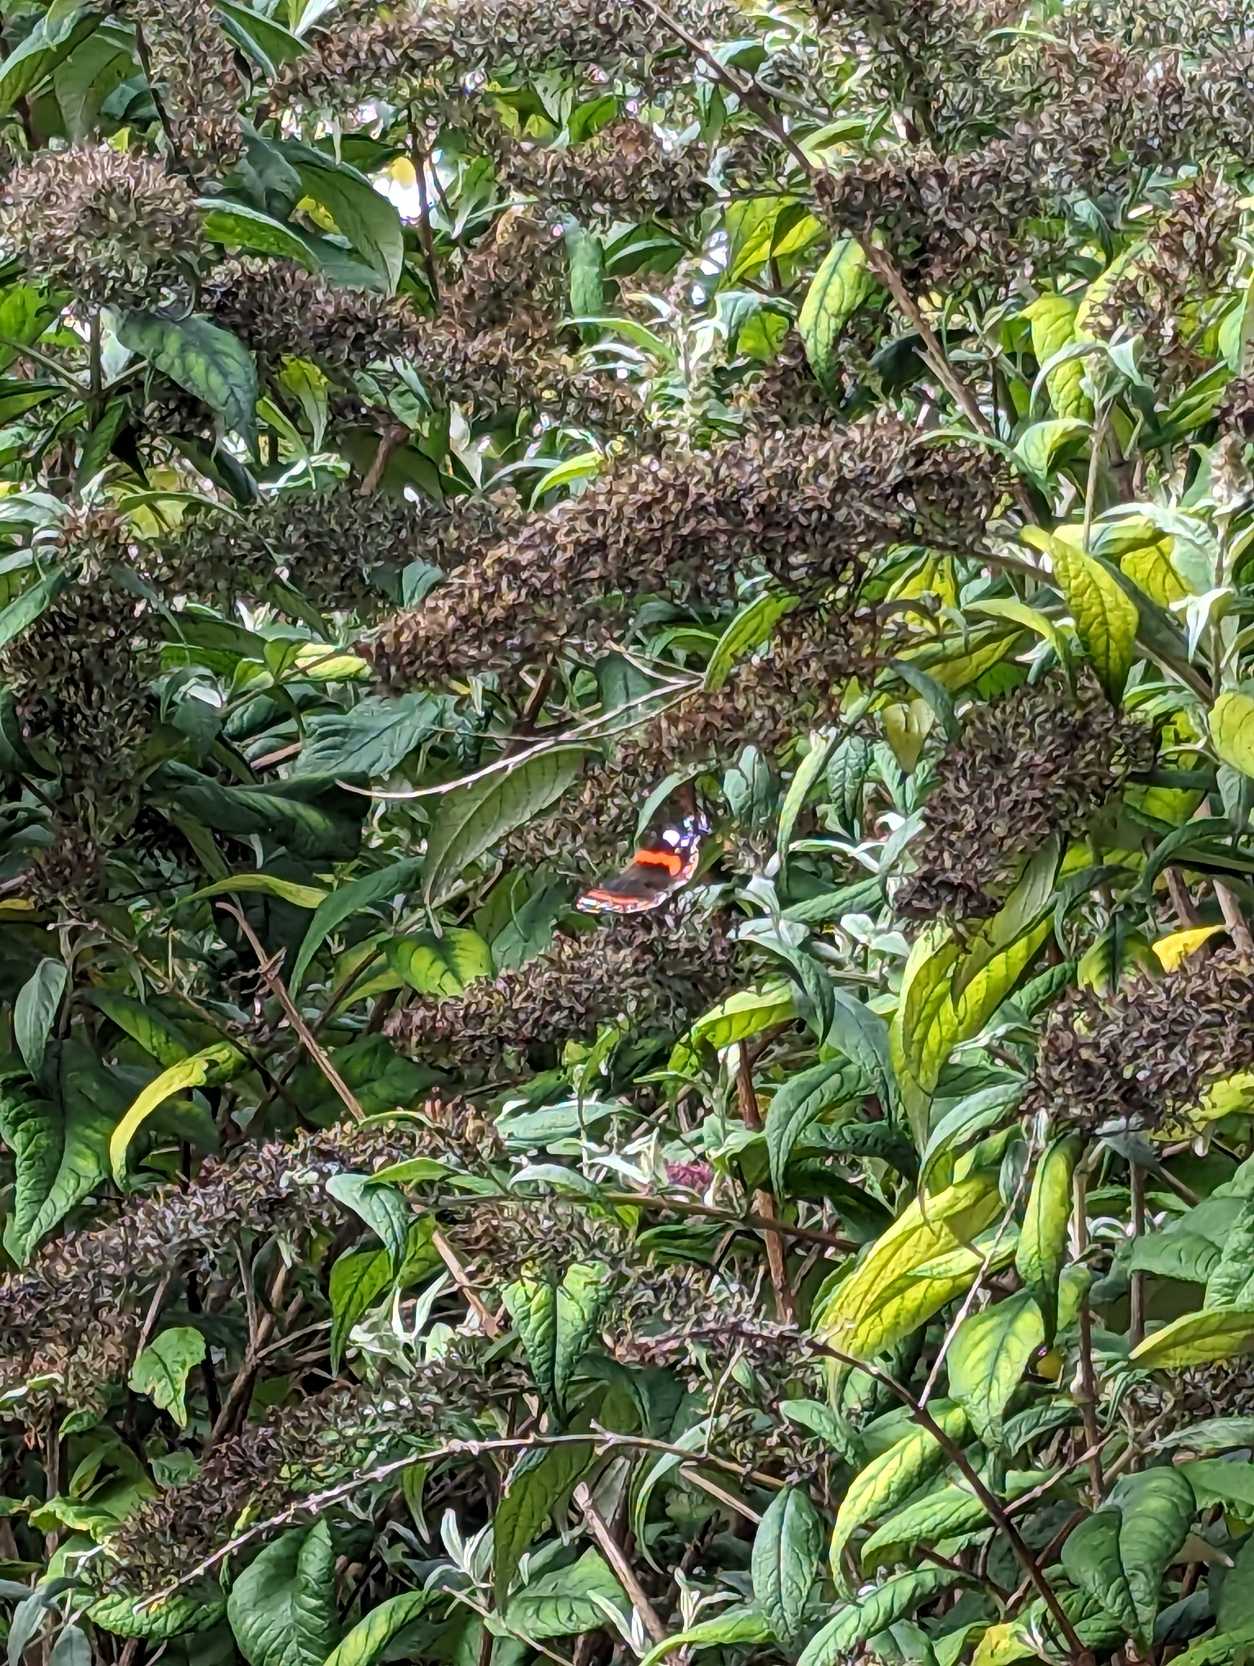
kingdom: Animalia
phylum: Arthropoda
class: Insecta
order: Lepidoptera
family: Nymphalidae
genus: Vanessa
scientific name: Vanessa atalanta
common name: Admiral
